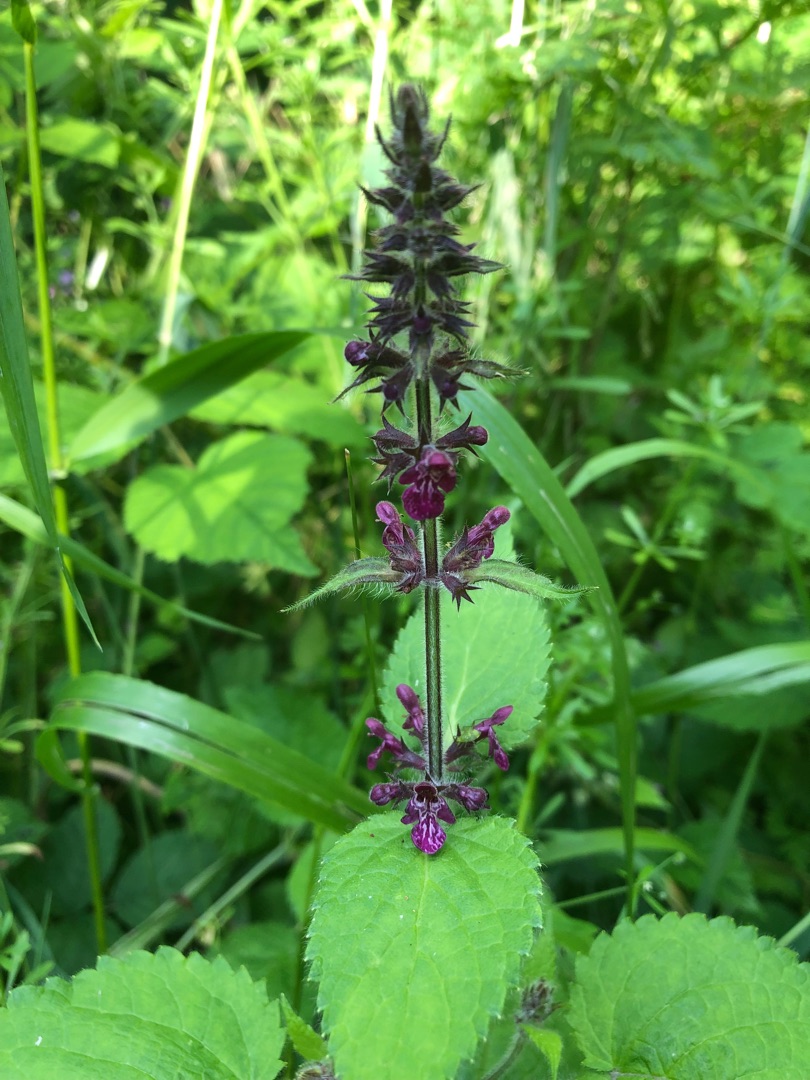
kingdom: Plantae
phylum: Tracheophyta
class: Magnoliopsida
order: Lamiales
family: Lamiaceae
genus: Stachys
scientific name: Stachys sylvatica
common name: Skov-galtetand
